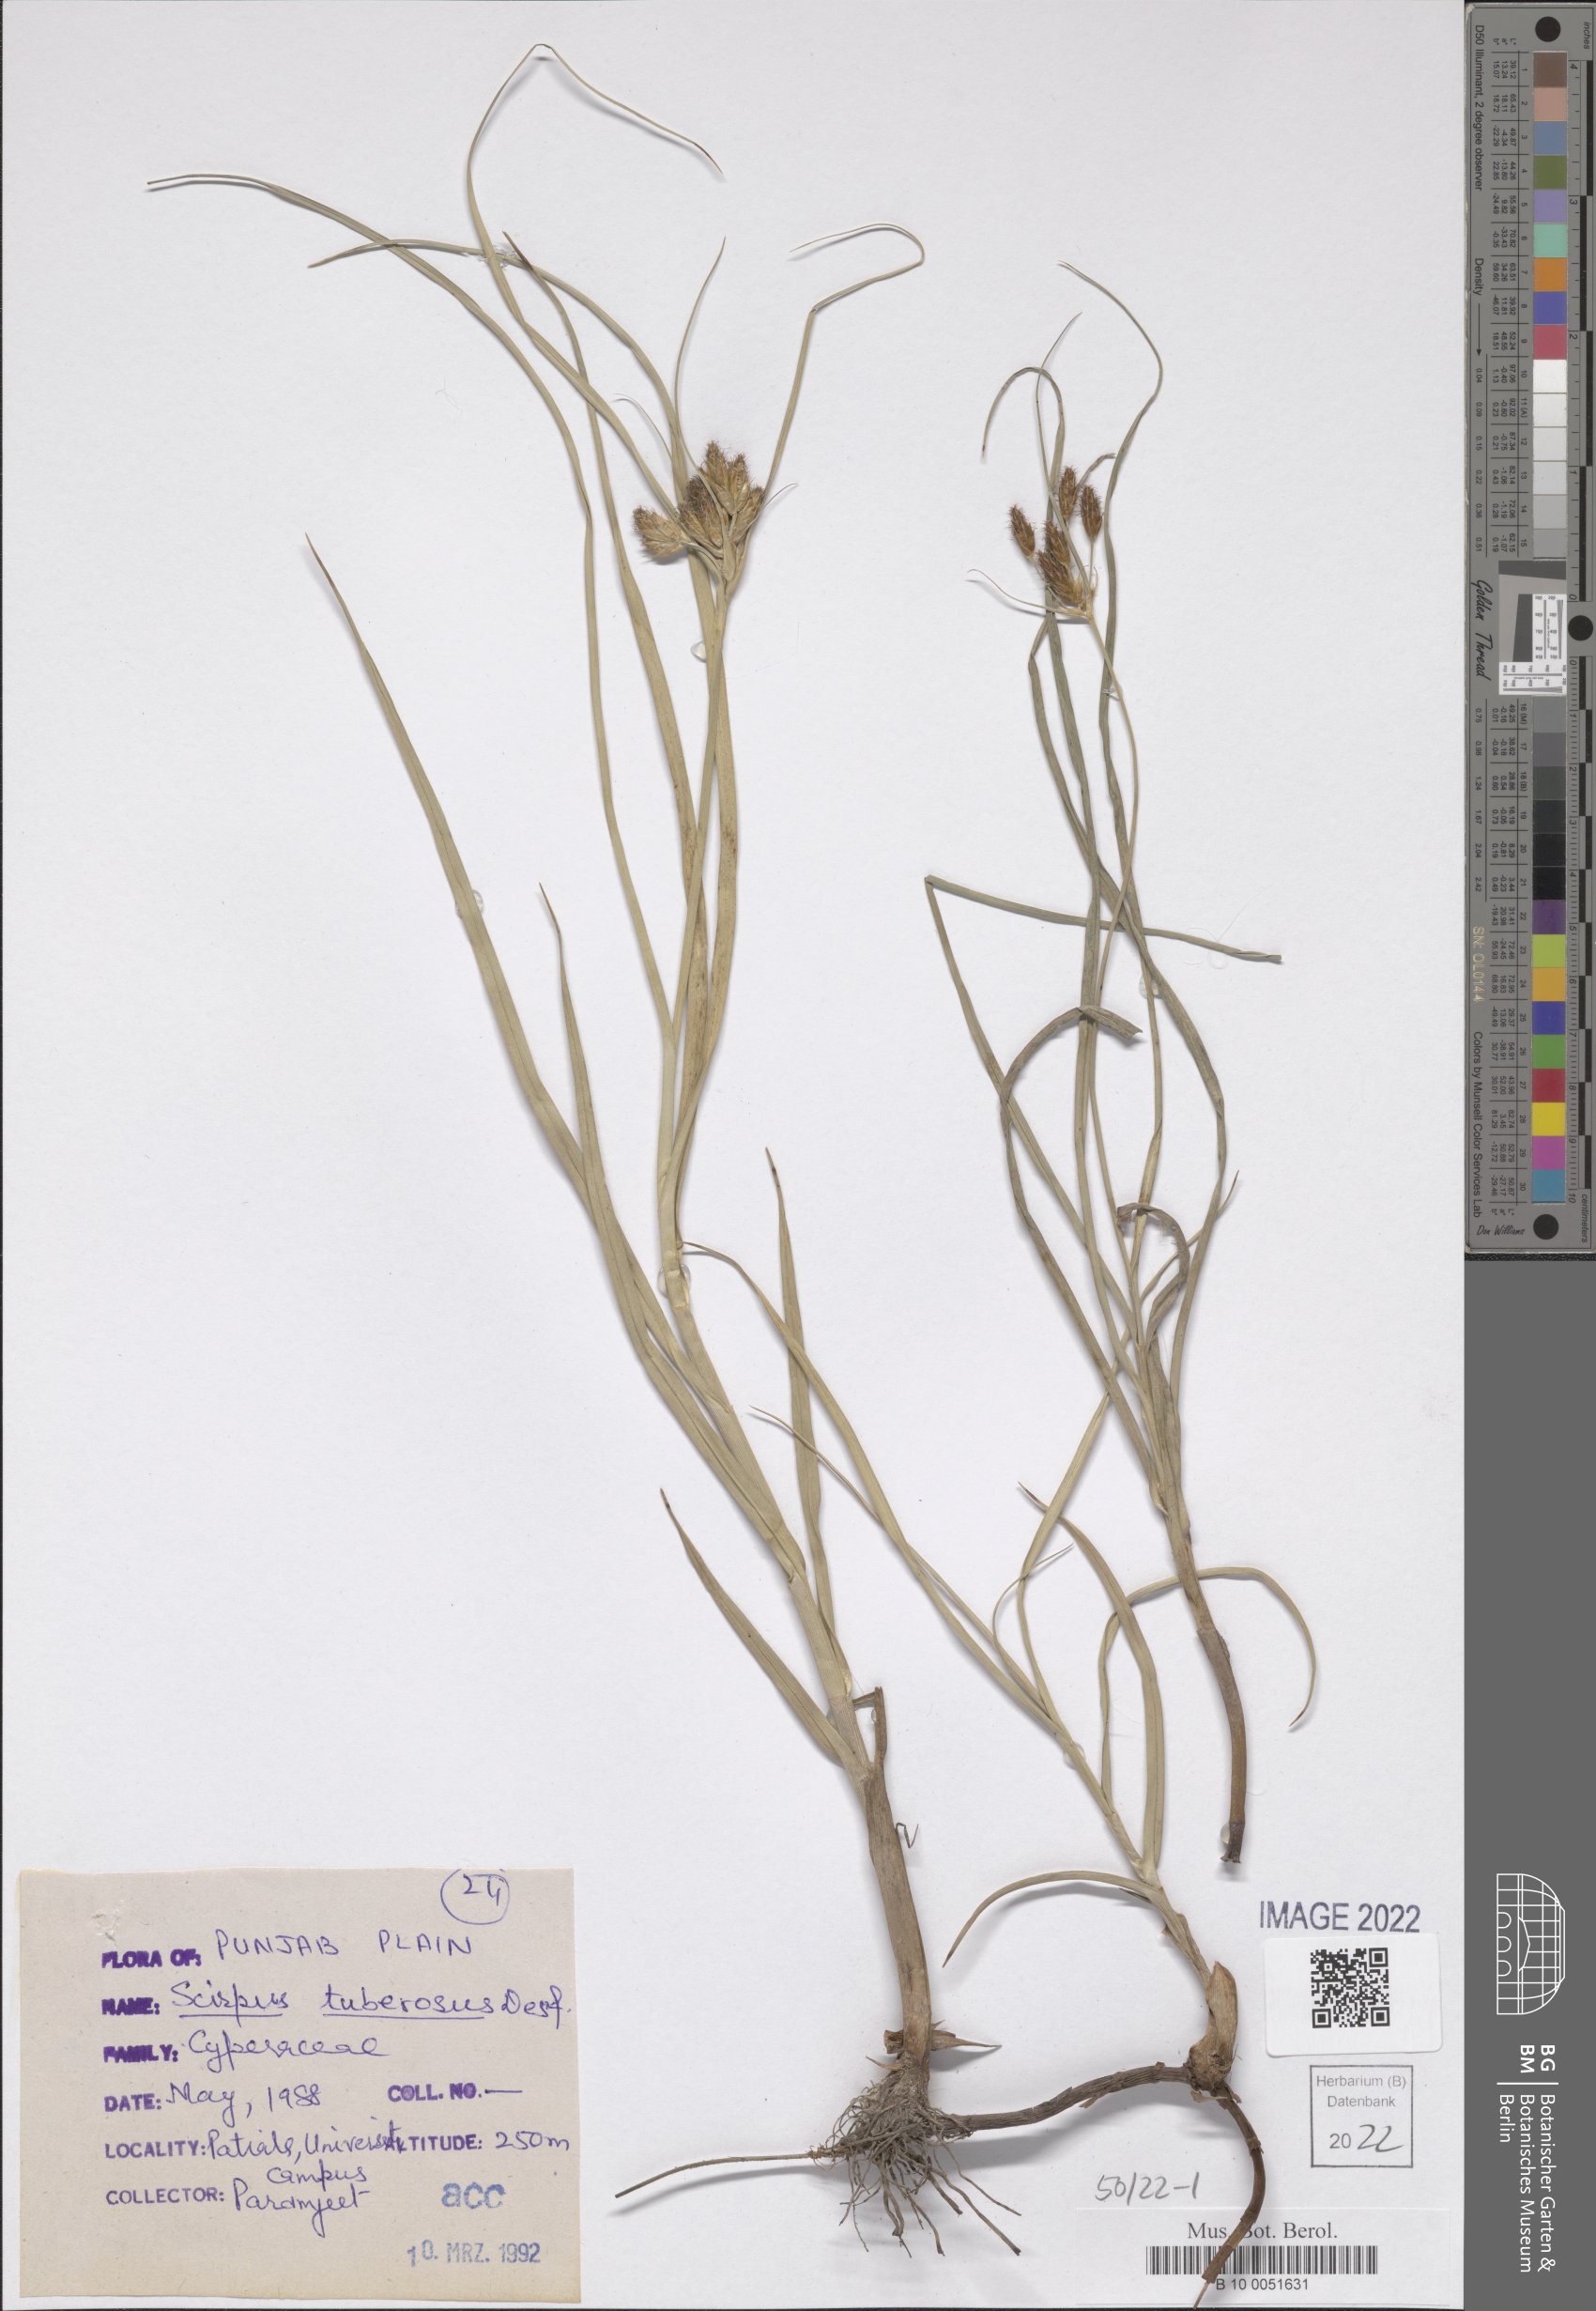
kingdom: Plantae
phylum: Tracheophyta
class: Liliopsida
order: Poales
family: Cyperaceae
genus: Bolboschoenus
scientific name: Bolboschoenus glaucus
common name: Tuberous bulrush
